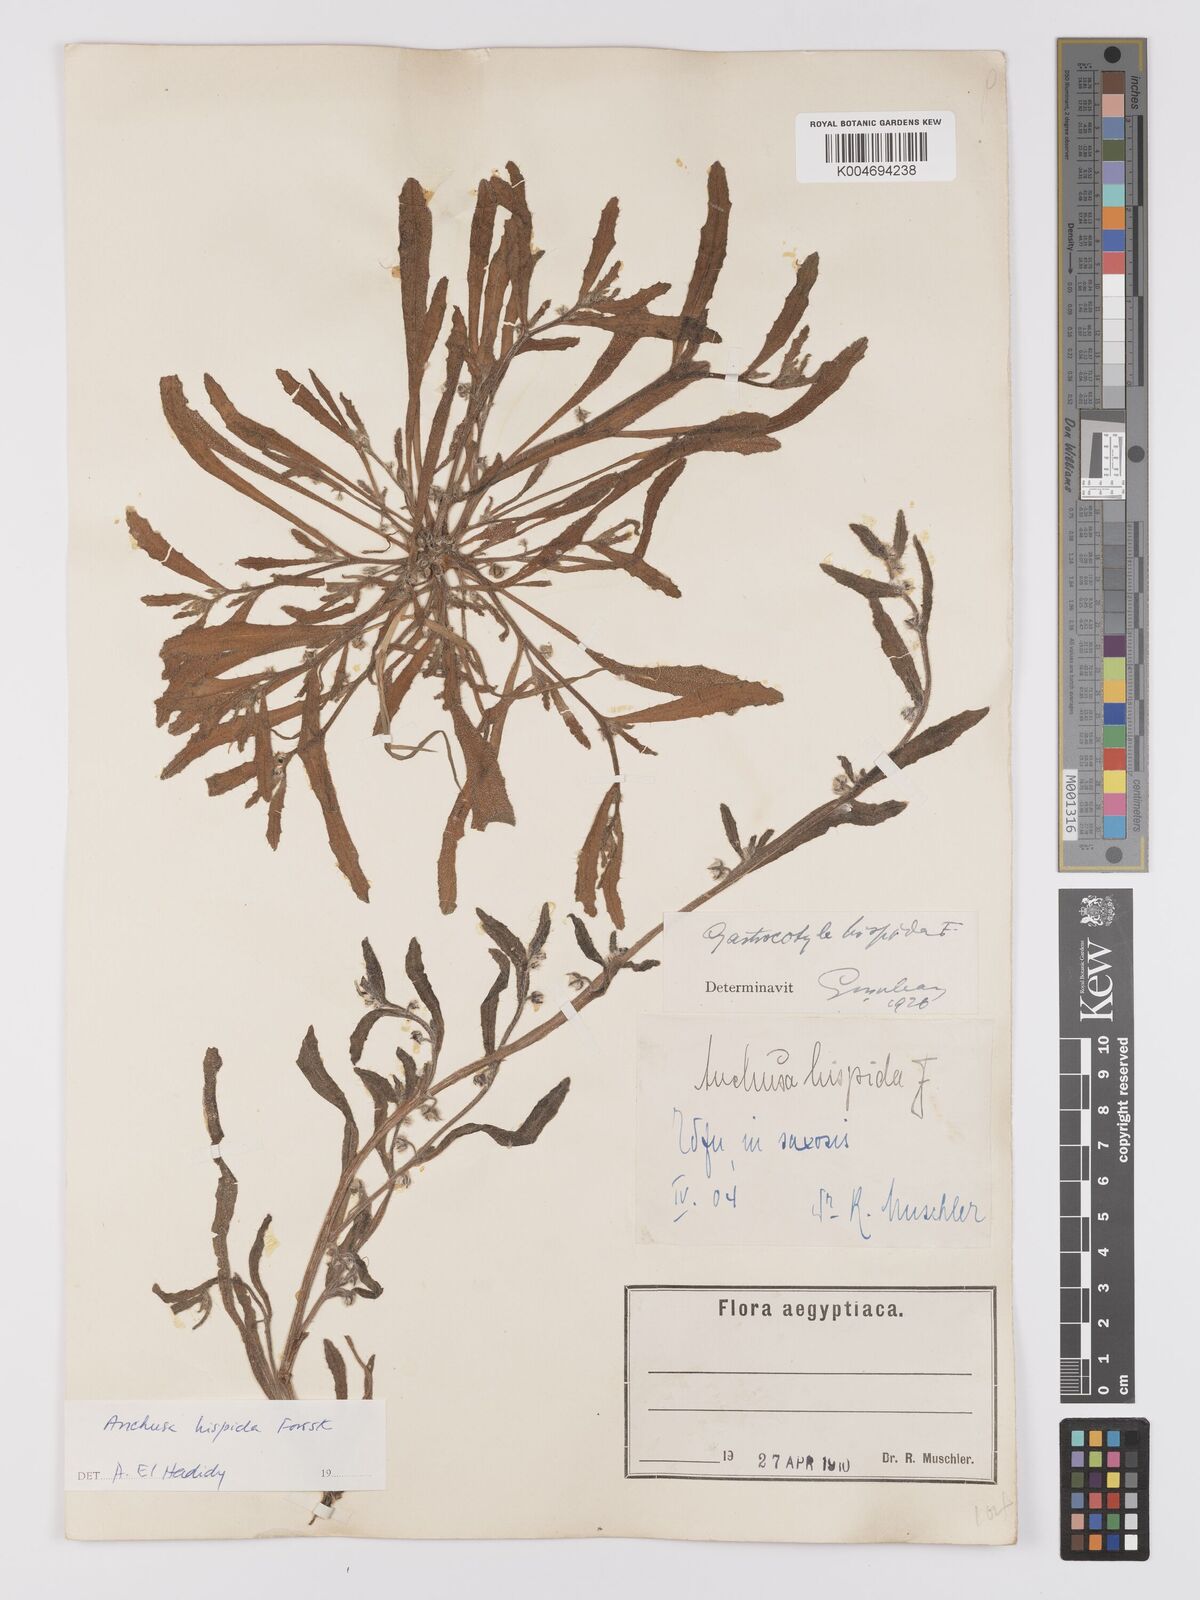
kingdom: Plantae
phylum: Tracheophyta
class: Magnoliopsida
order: Boraginales
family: Boraginaceae
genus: Gastrocotyle
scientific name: Gastrocotyle hispida
